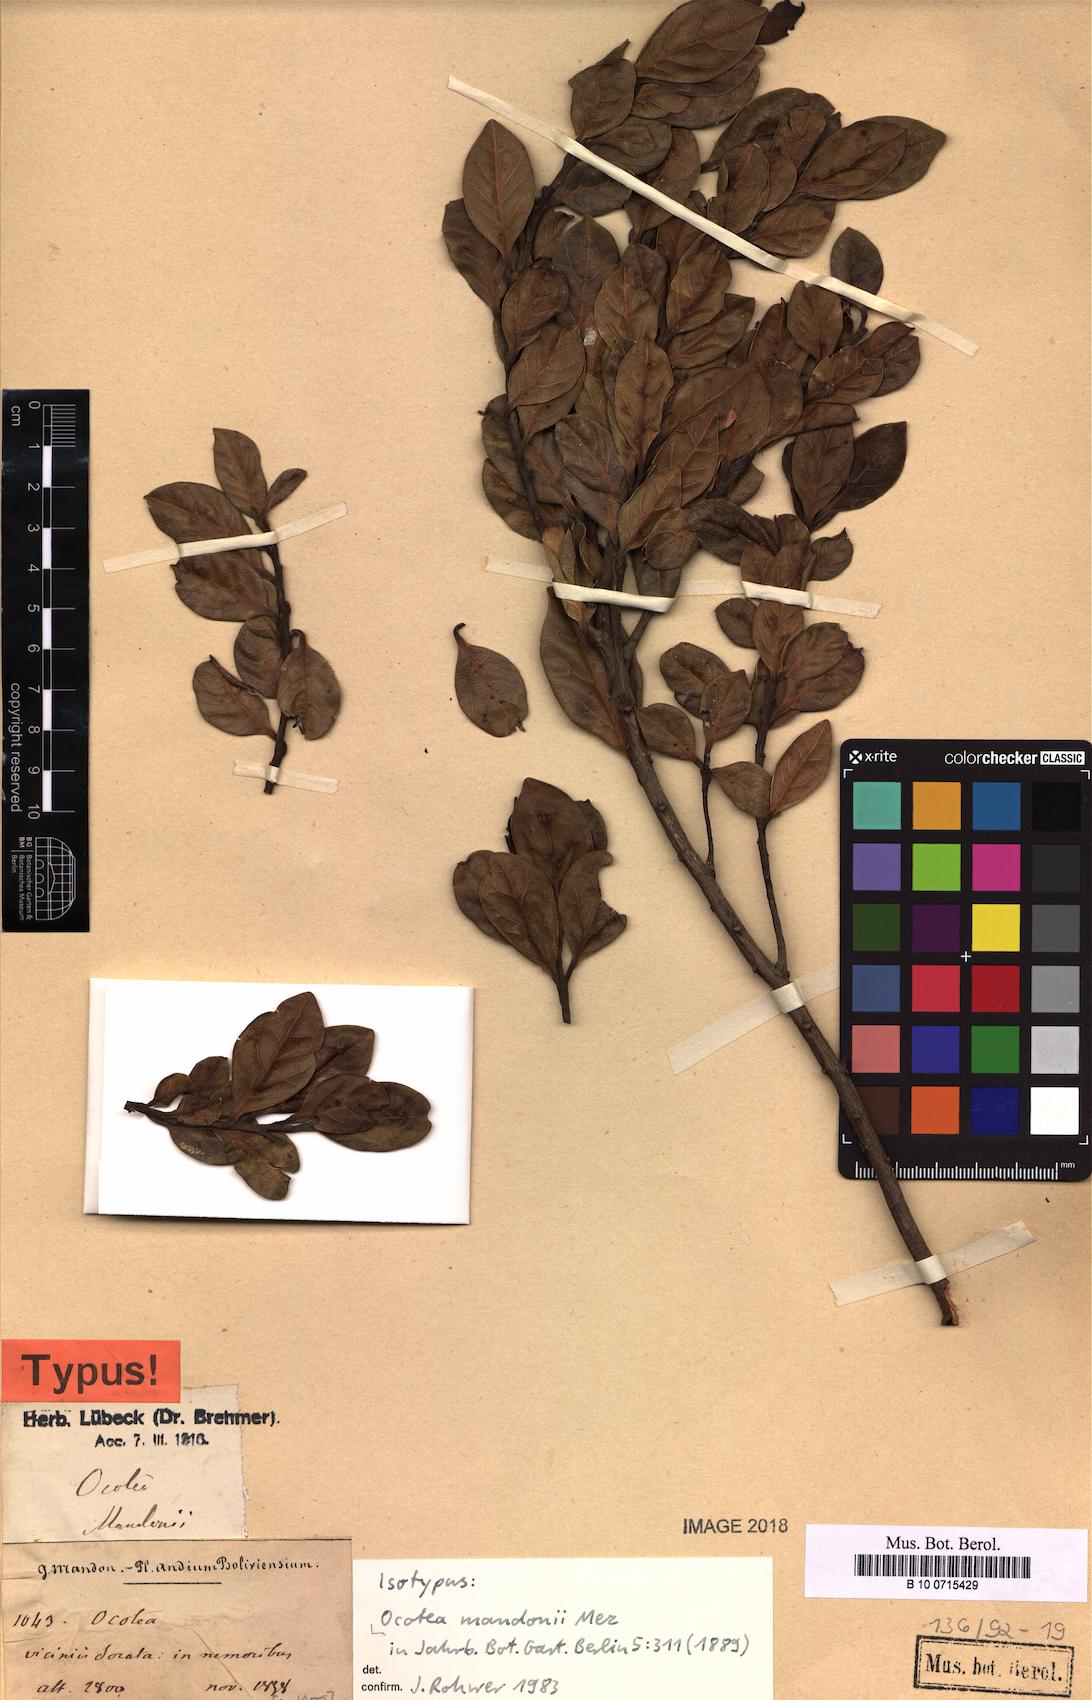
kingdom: Plantae
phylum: Tracheophyta
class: Magnoliopsida
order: Laurales
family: Lauraceae
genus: Ocotea
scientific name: Ocotea mandonii
